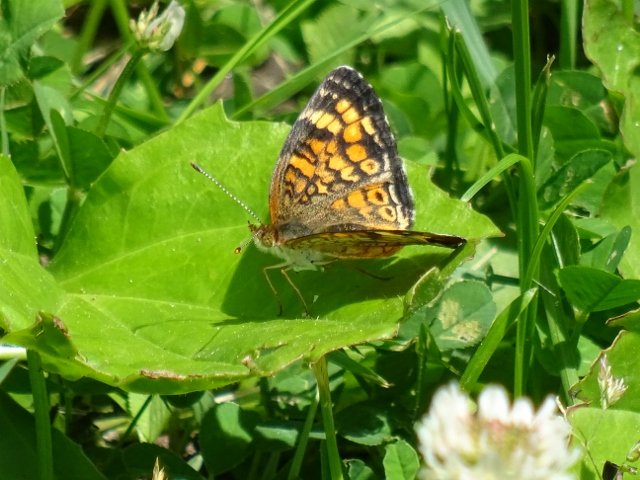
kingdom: Animalia
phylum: Arthropoda
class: Insecta
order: Lepidoptera
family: Nymphalidae
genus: Phyciodes
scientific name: Phyciodes tharos
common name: Northern Crescent
